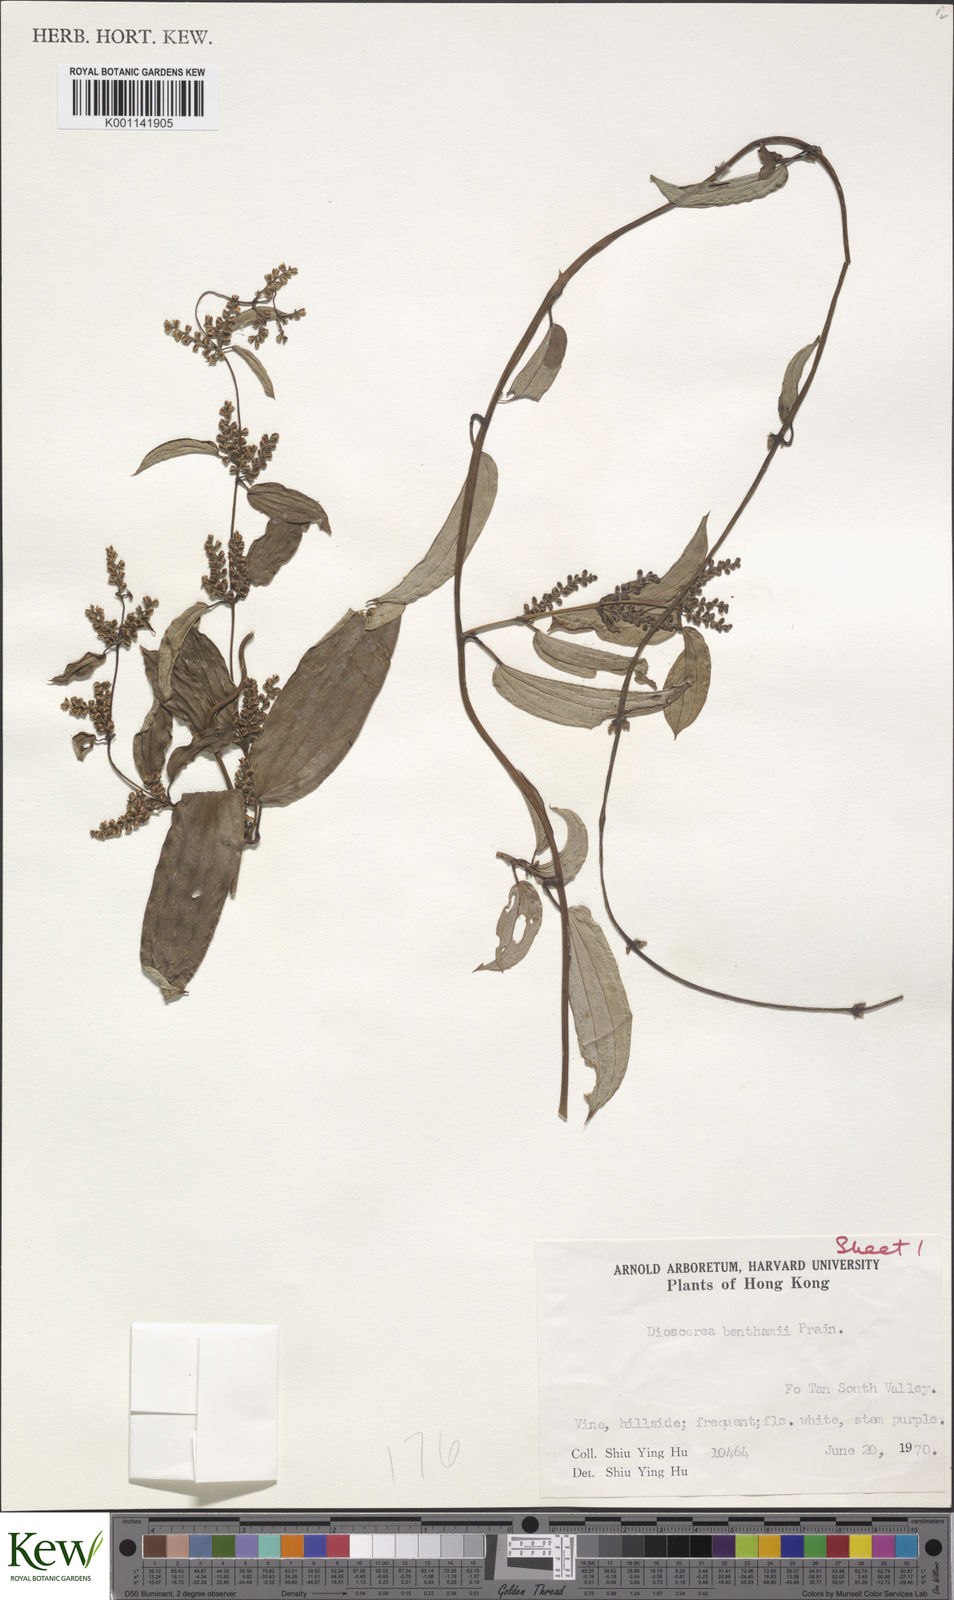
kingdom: Plantae
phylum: Tracheophyta
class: Liliopsida
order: Dioscoreales
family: Dioscoreaceae
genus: Dioscorea
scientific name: Dioscorea benthamii
